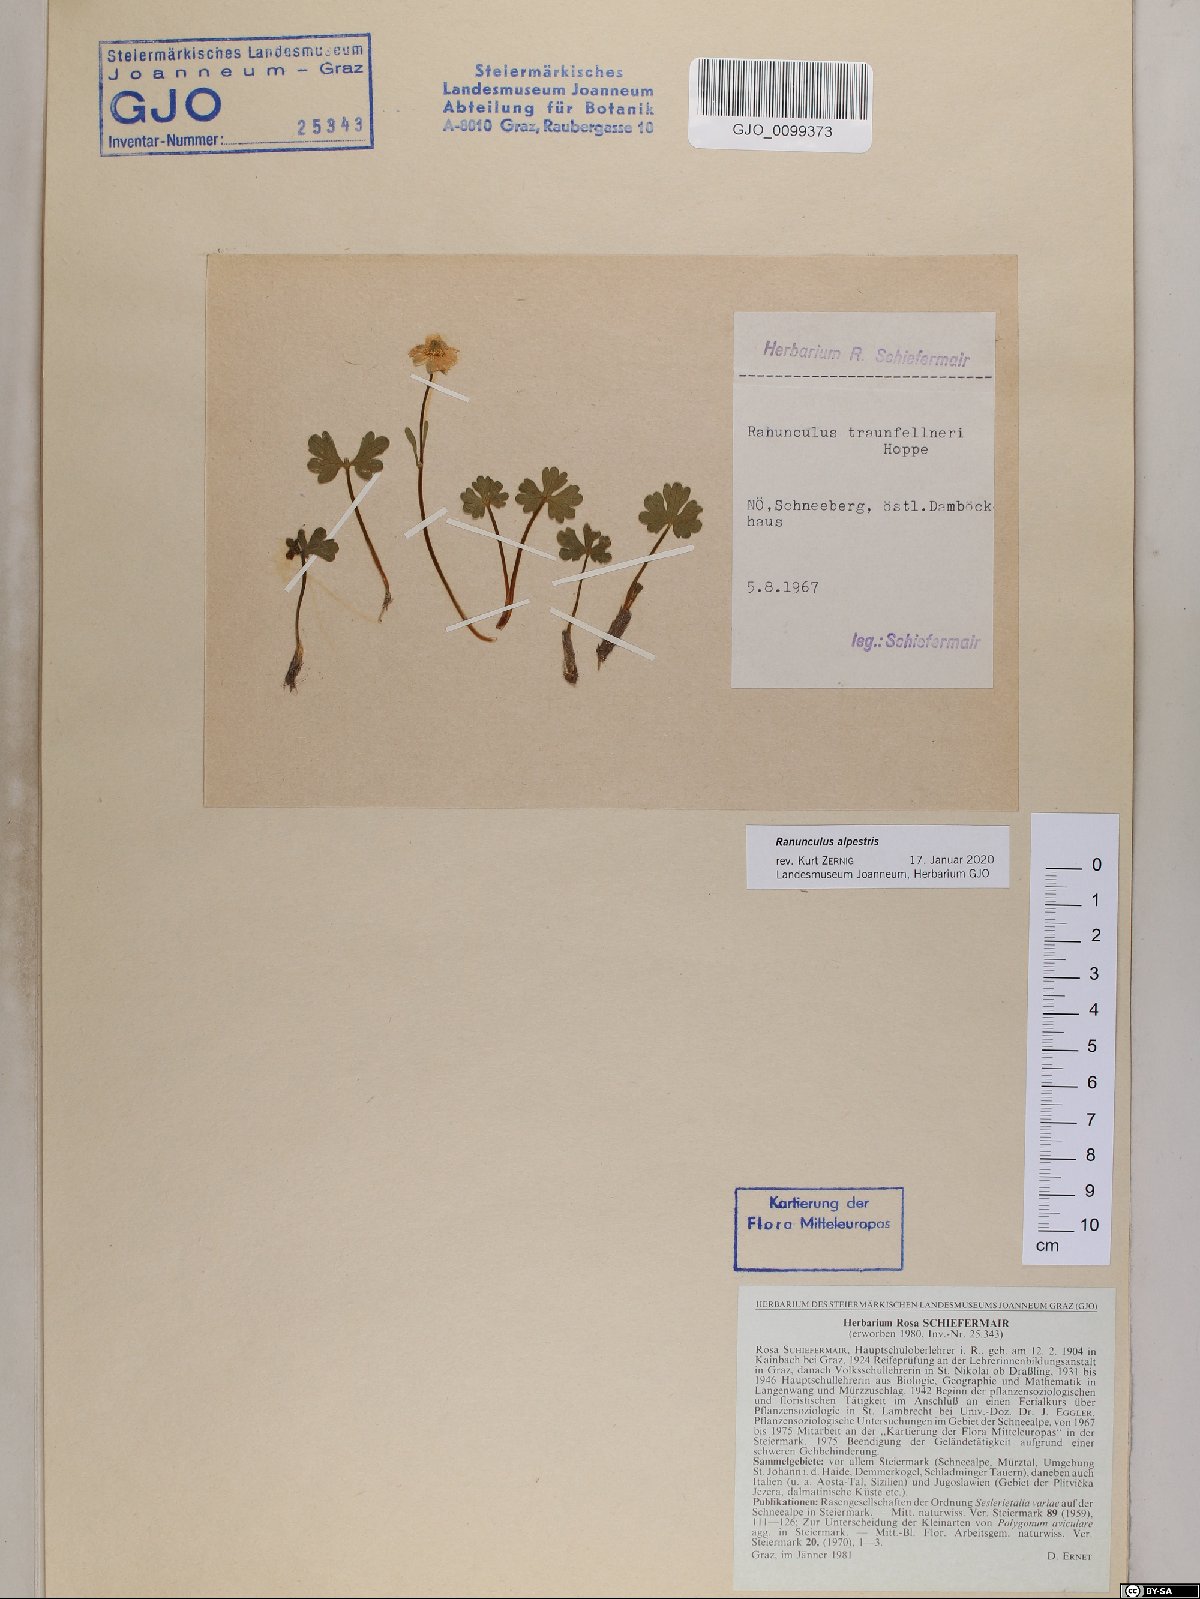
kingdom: Plantae
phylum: Tracheophyta
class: Magnoliopsida
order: Ranunculales
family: Ranunculaceae
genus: Ranunculus
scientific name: Ranunculus alpestris
